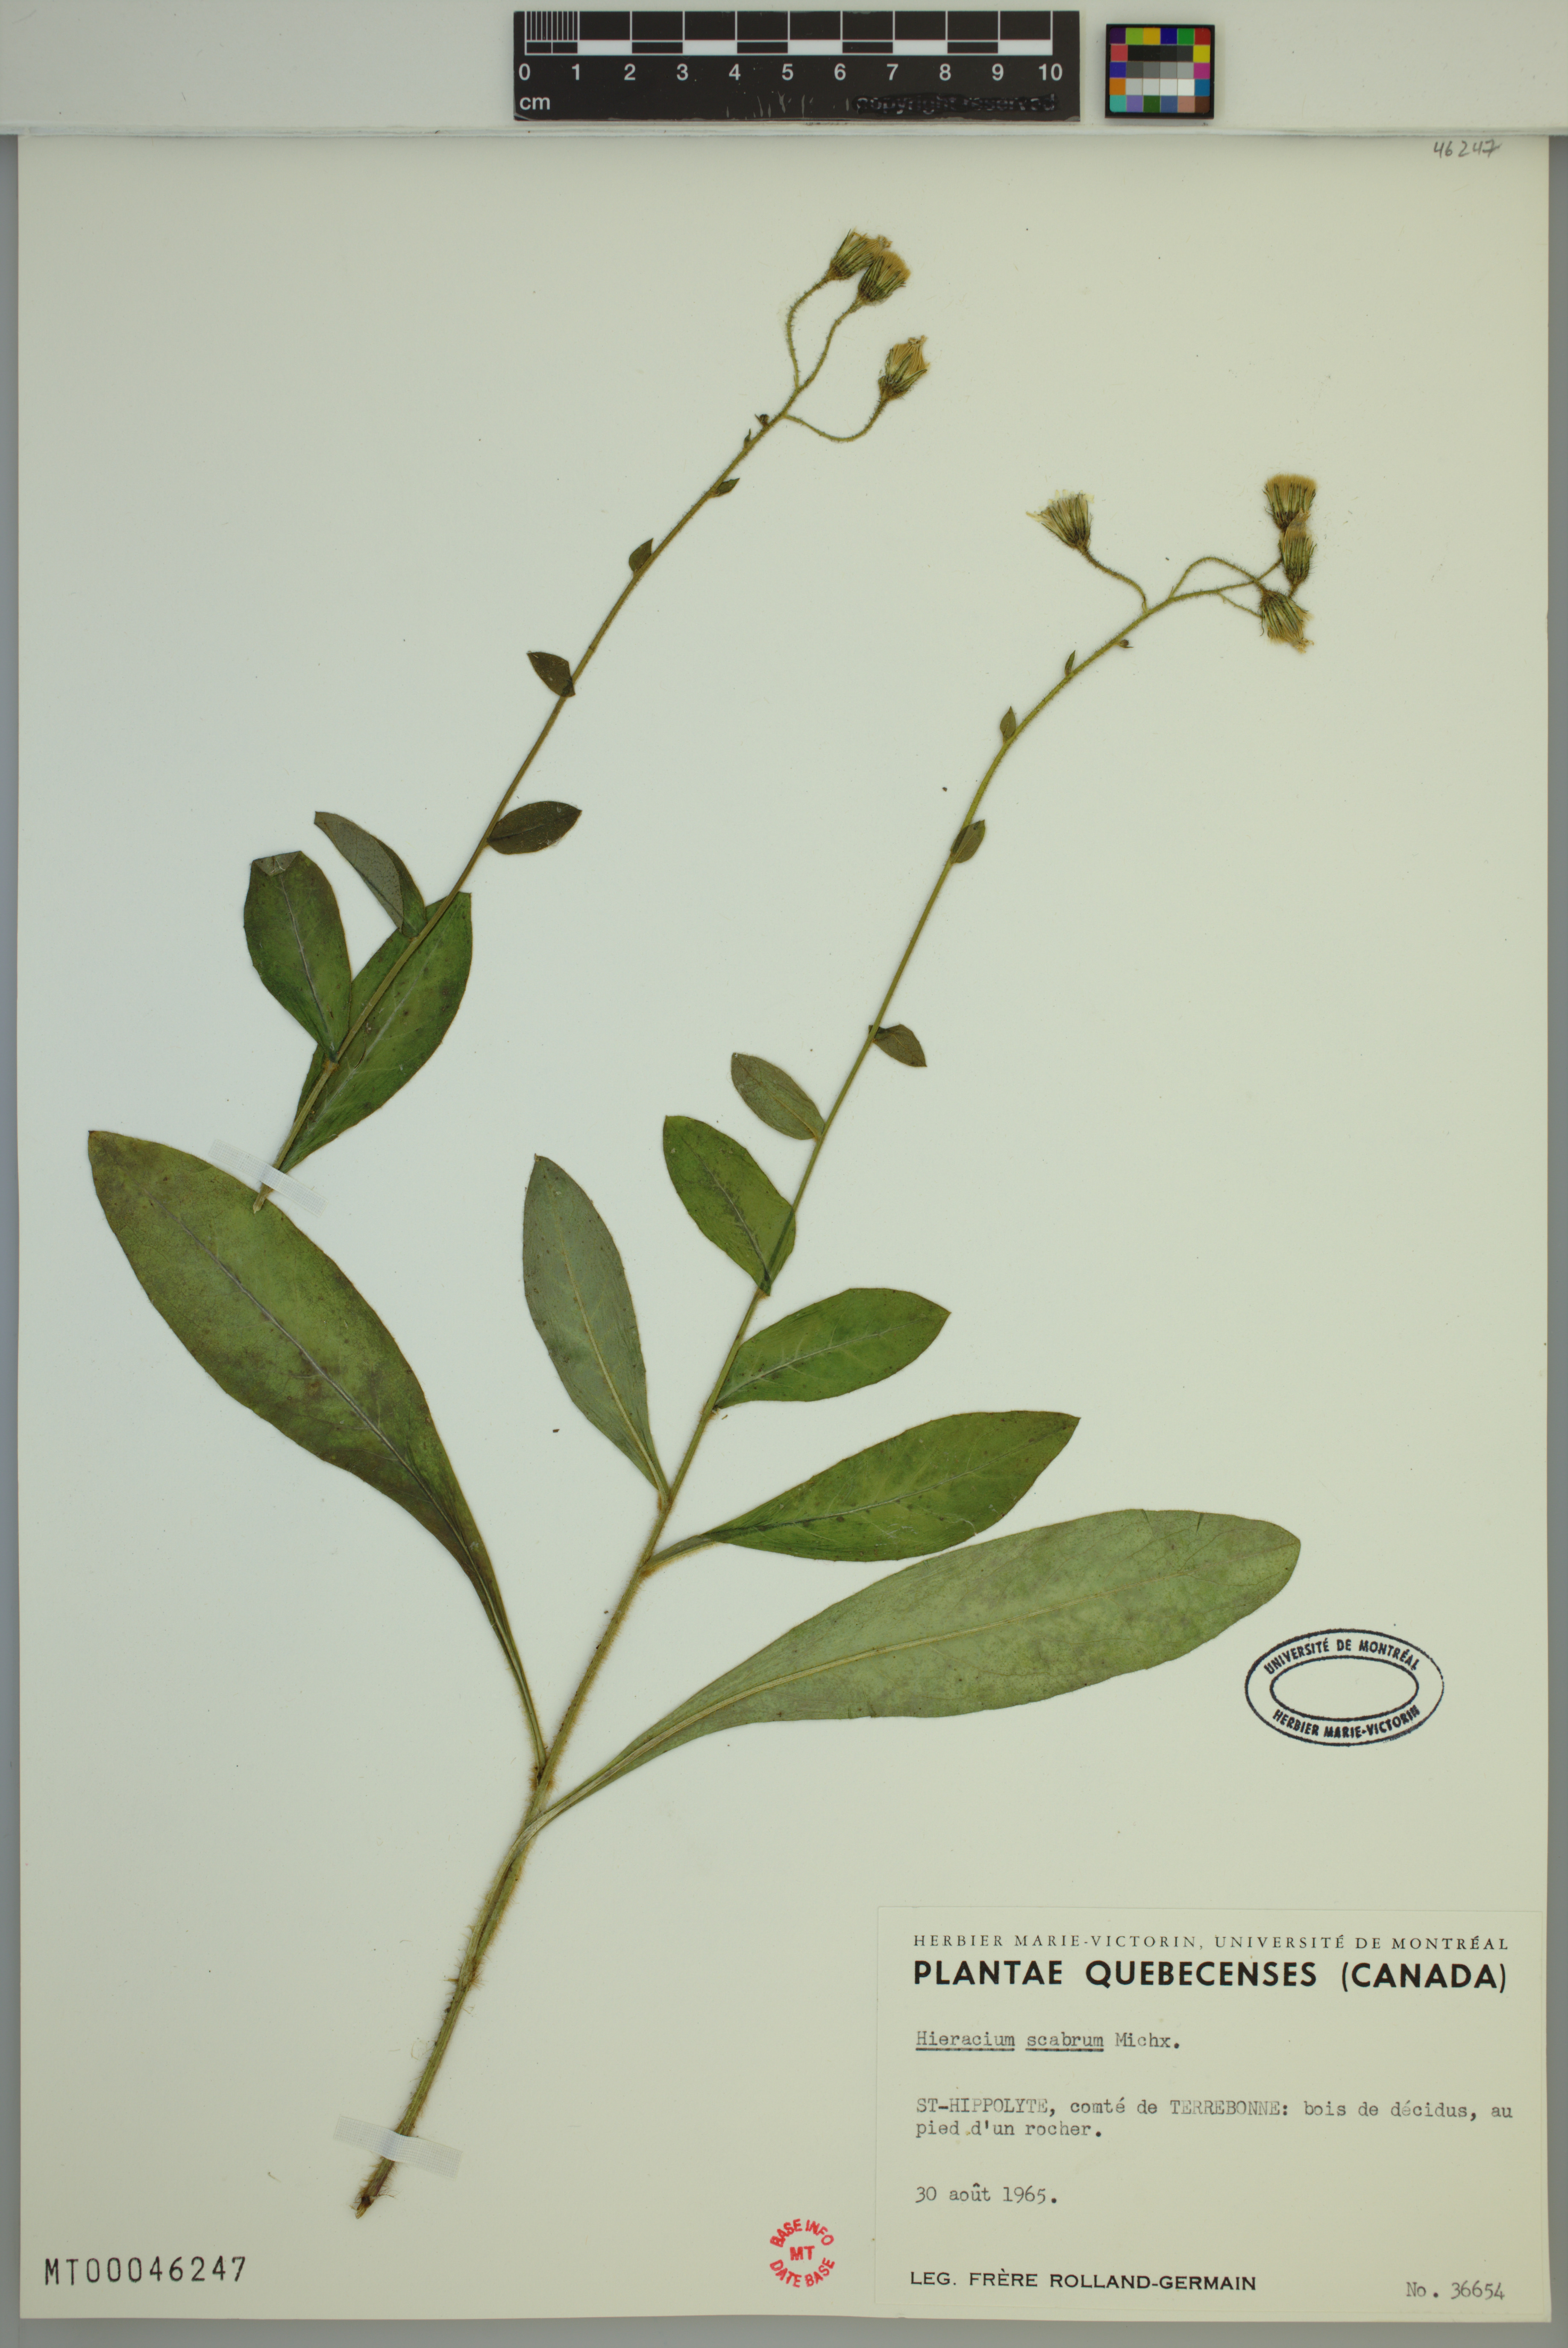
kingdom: Plantae
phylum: Tracheophyta
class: Magnoliopsida
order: Asterales
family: Asteraceae
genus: Hieracium
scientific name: Hieracium scabrum
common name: Rough hawkweed
